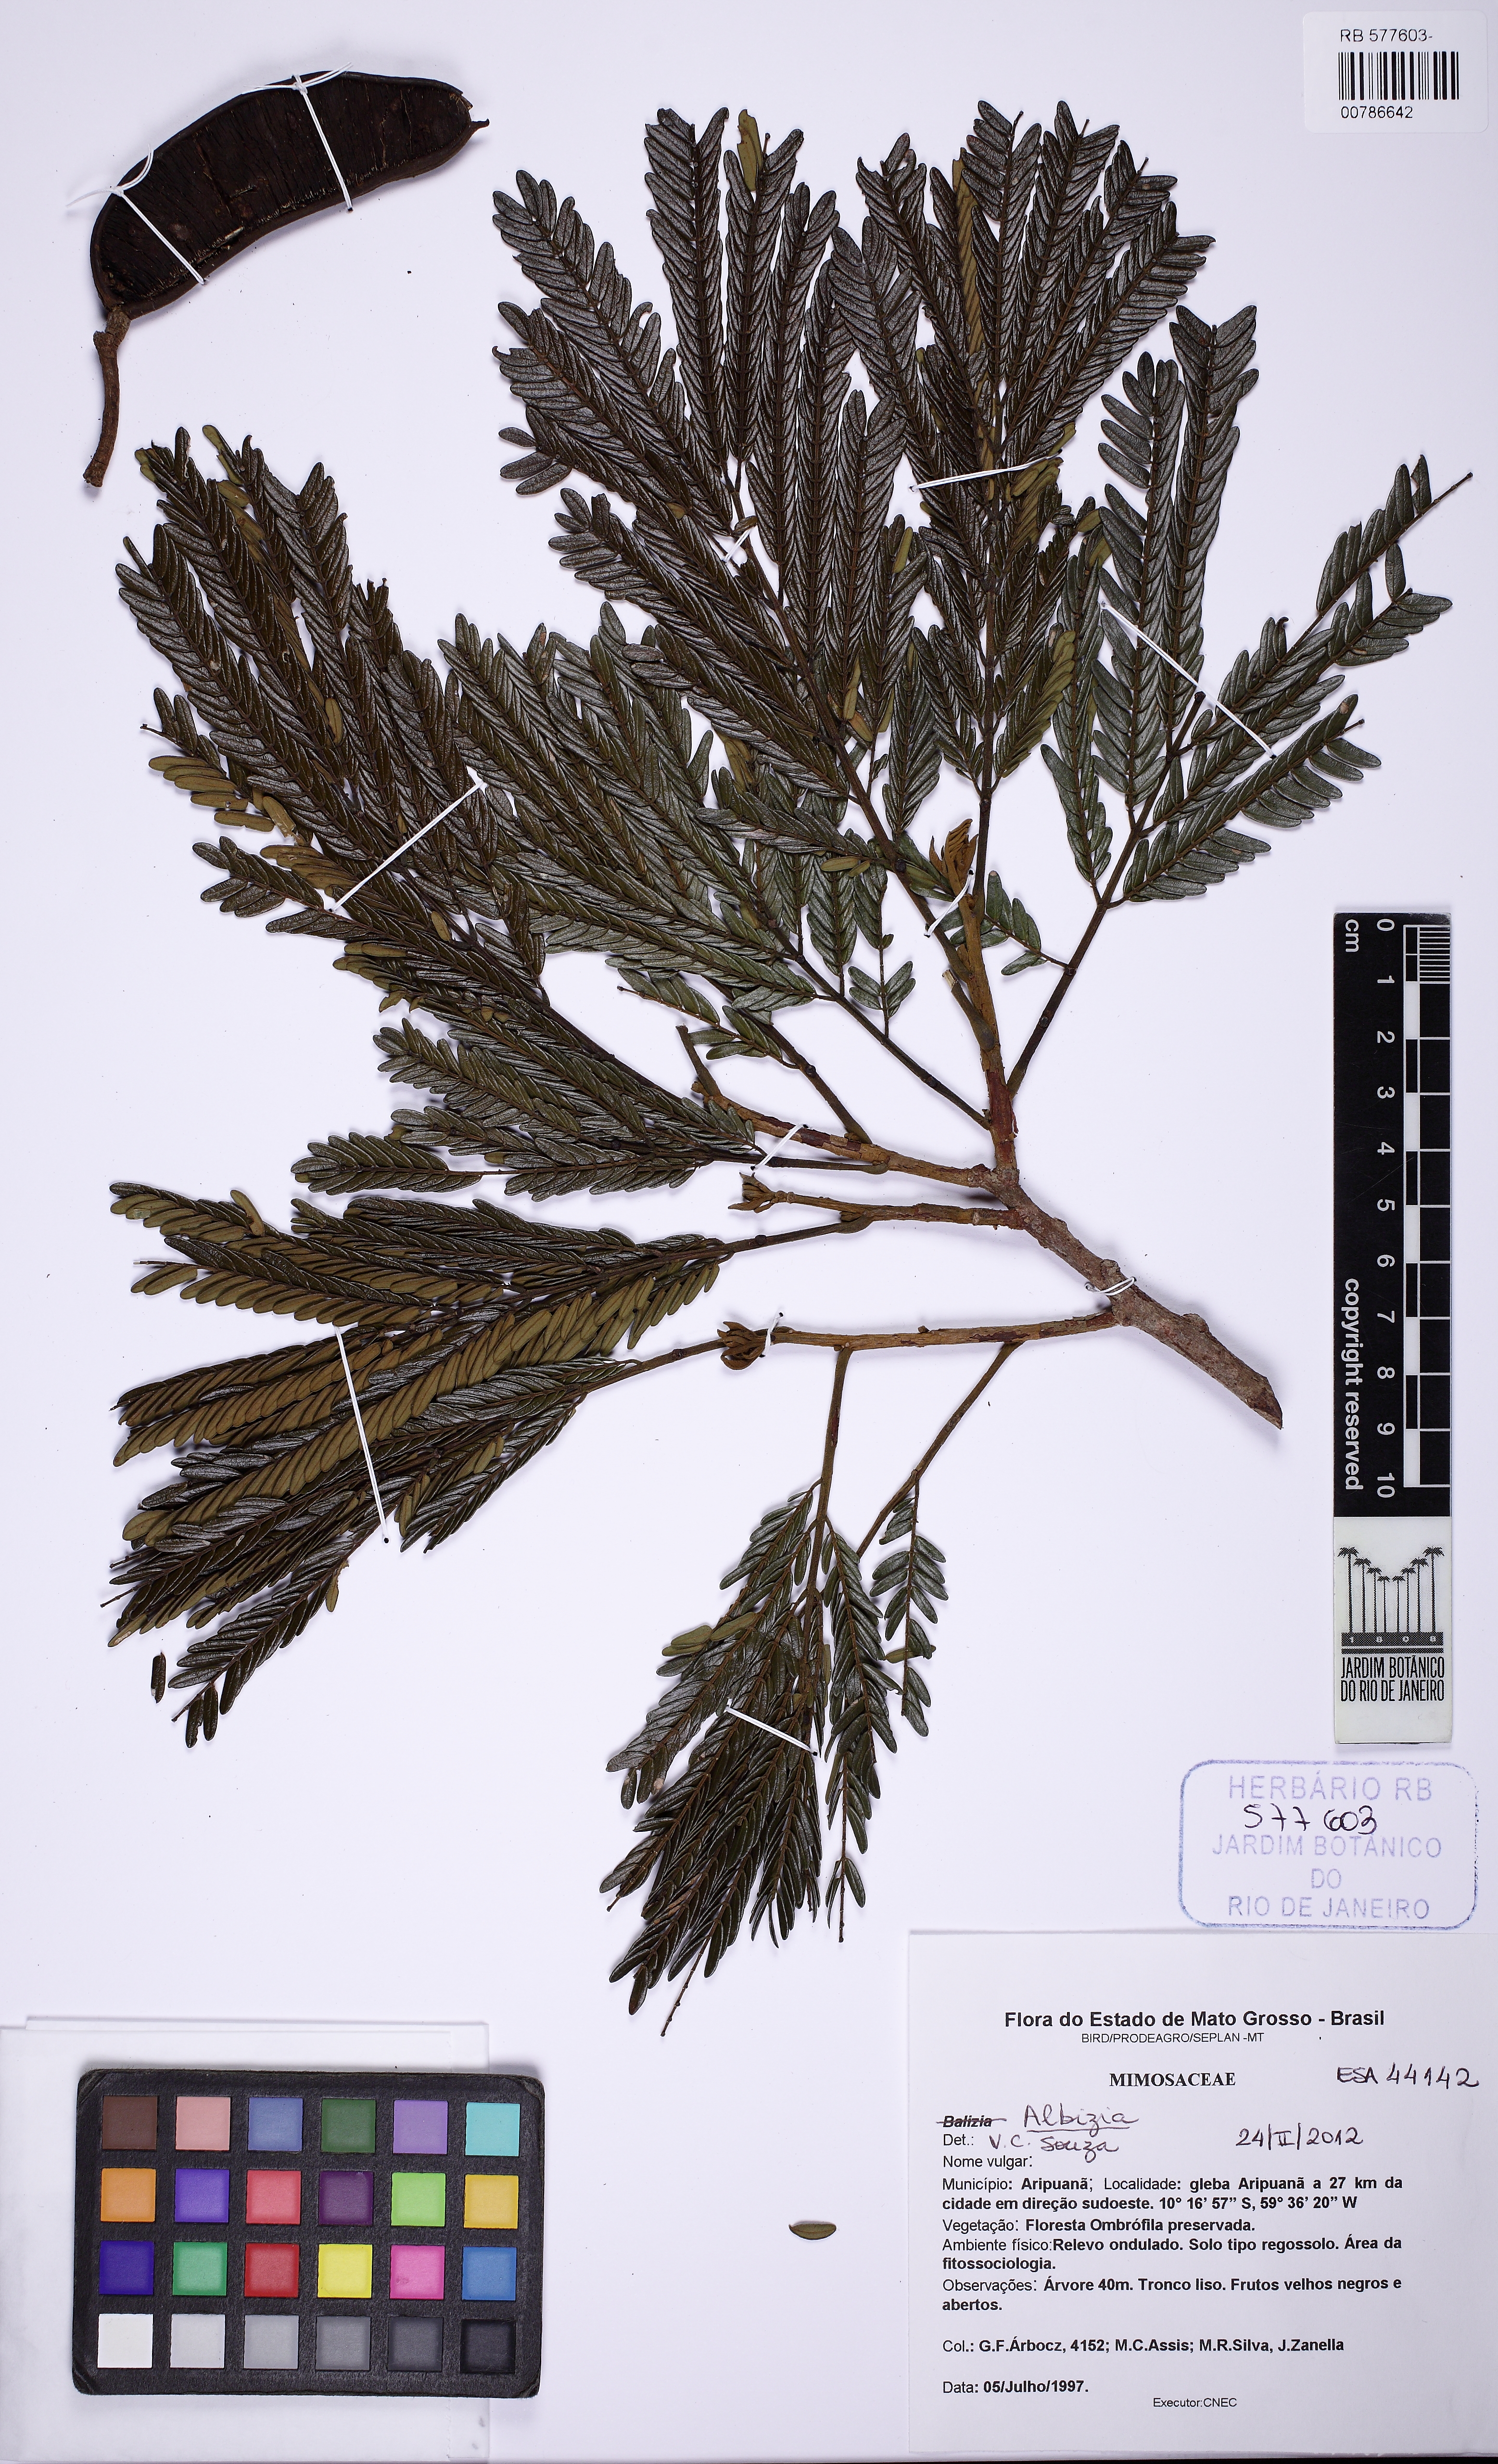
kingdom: Plantae
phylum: Tracheophyta
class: Magnoliopsida
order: Fabales
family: Fabaceae
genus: Balizia
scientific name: Balizia pedicellaris
